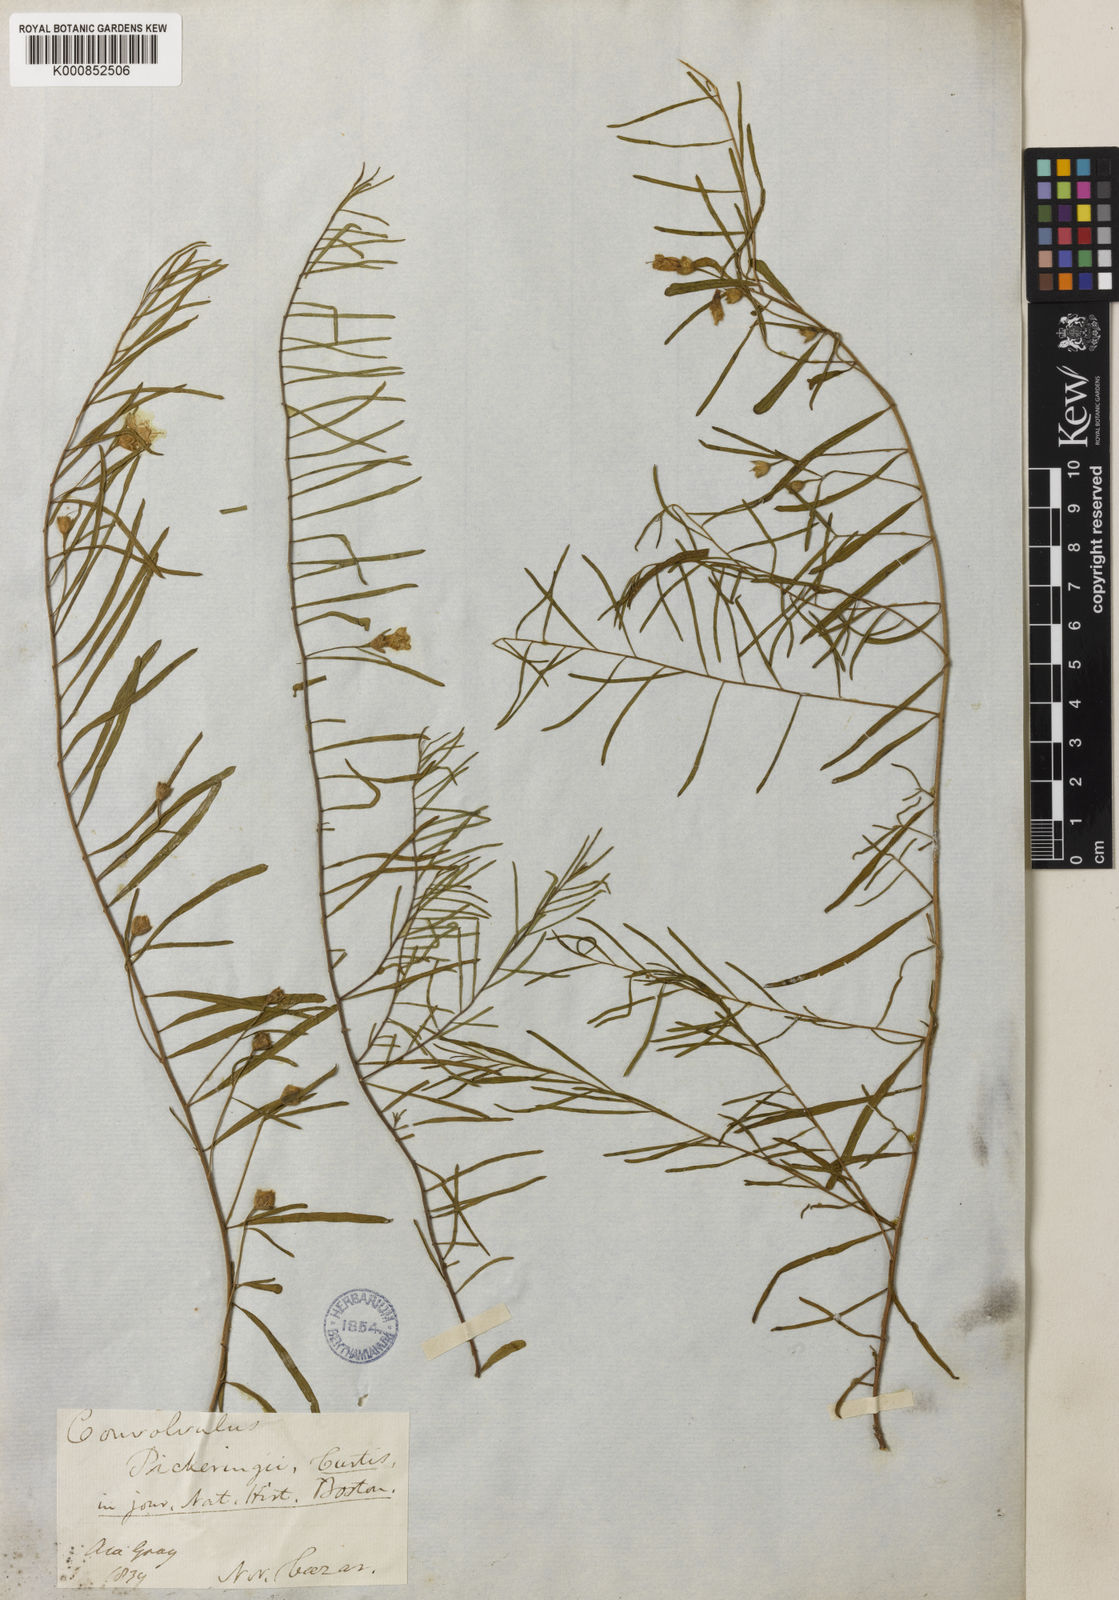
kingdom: Plantae
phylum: Tracheophyta
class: Magnoliopsida
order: Solanales
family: Convolvulaceae
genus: Stylisma
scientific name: Stylisma pickeringii
